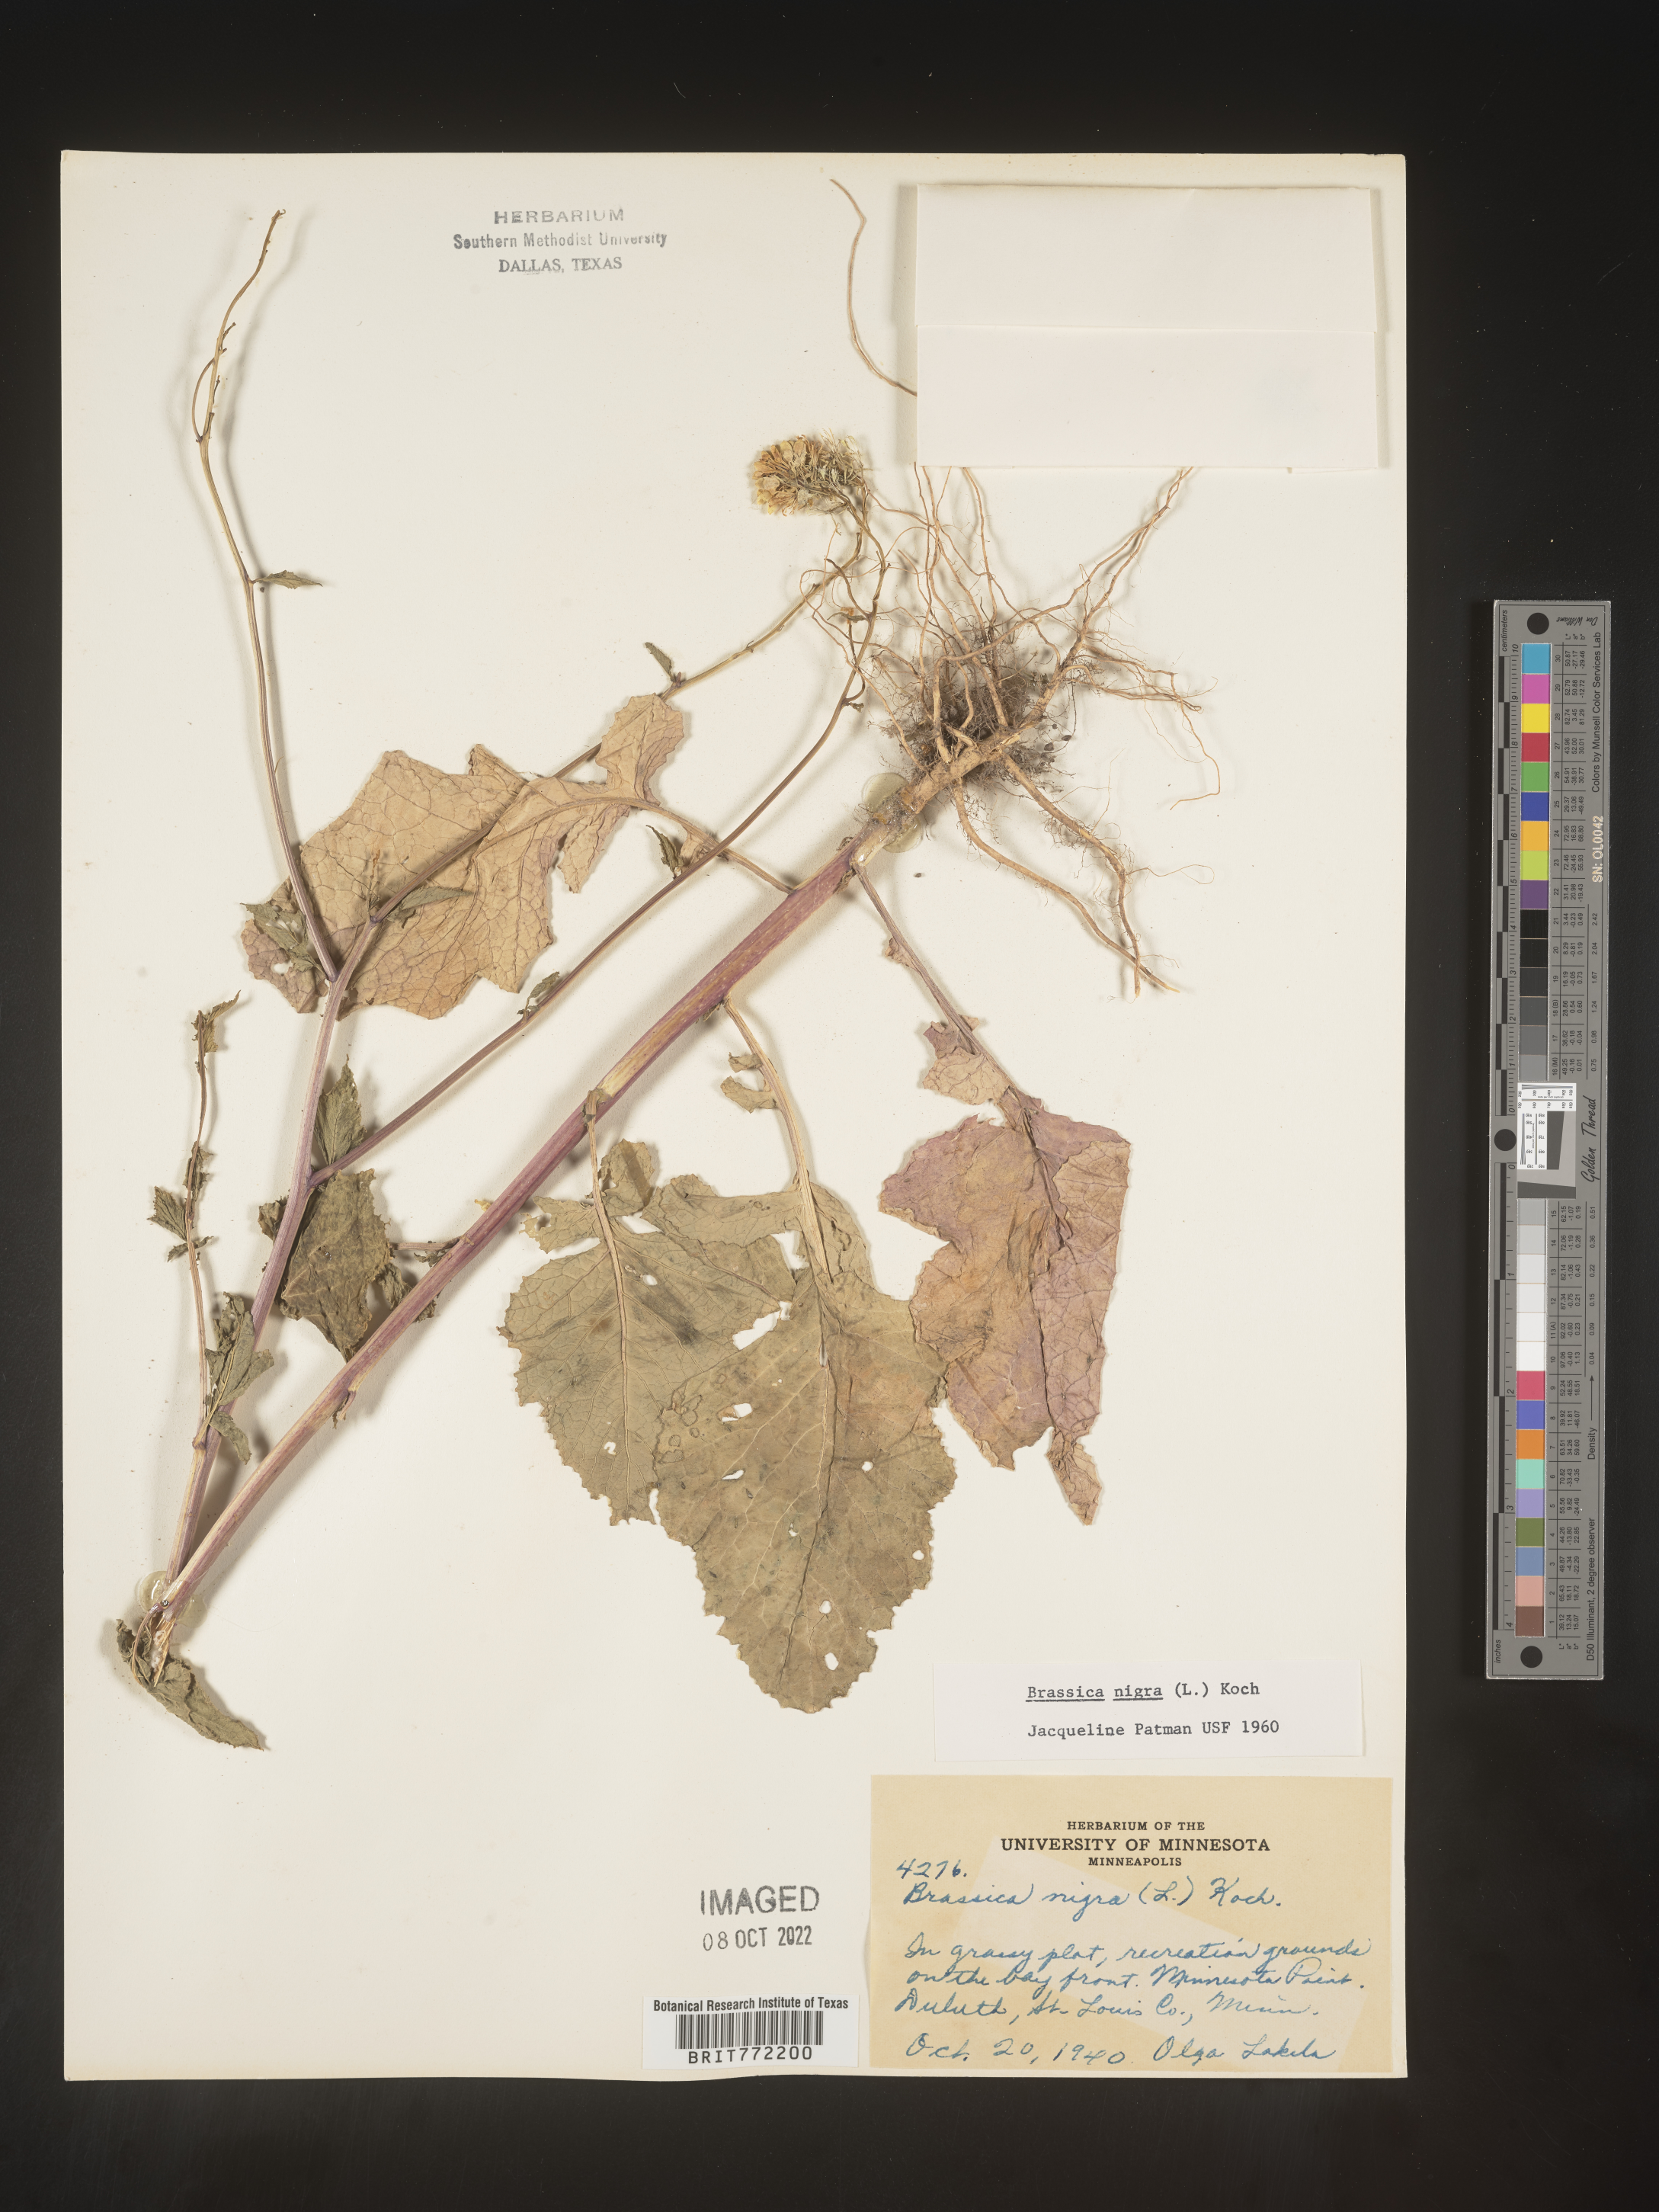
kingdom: Plantae
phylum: Tracheophyta
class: Magnoliopsida
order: Brassicales
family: Brassicaceae
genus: Brassica
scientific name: Brassica nigra
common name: Black mustard
